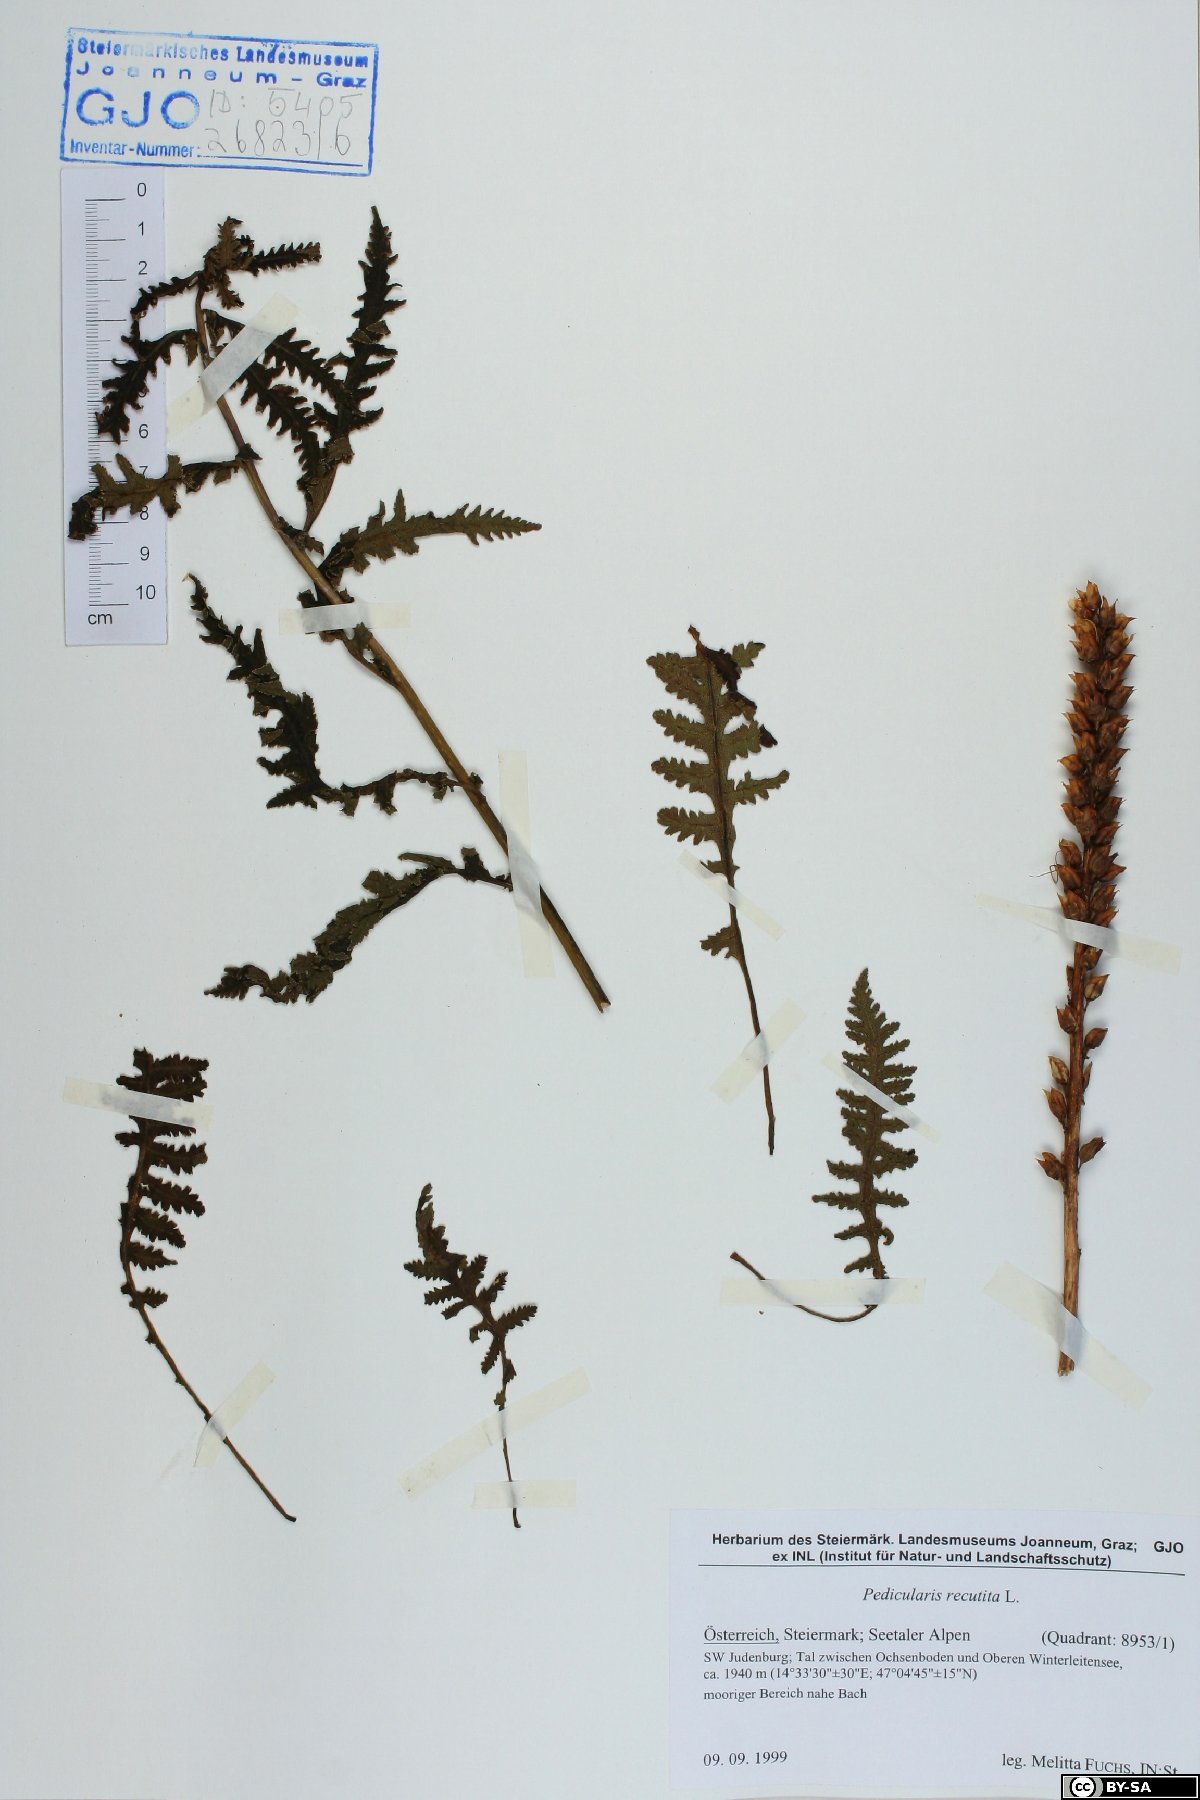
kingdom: Plantae
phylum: Tracheophyta
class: Magnoliopsida
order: Lamiales
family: Orobanchaceae
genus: Pedicularis
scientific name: Pedicularis recutita
